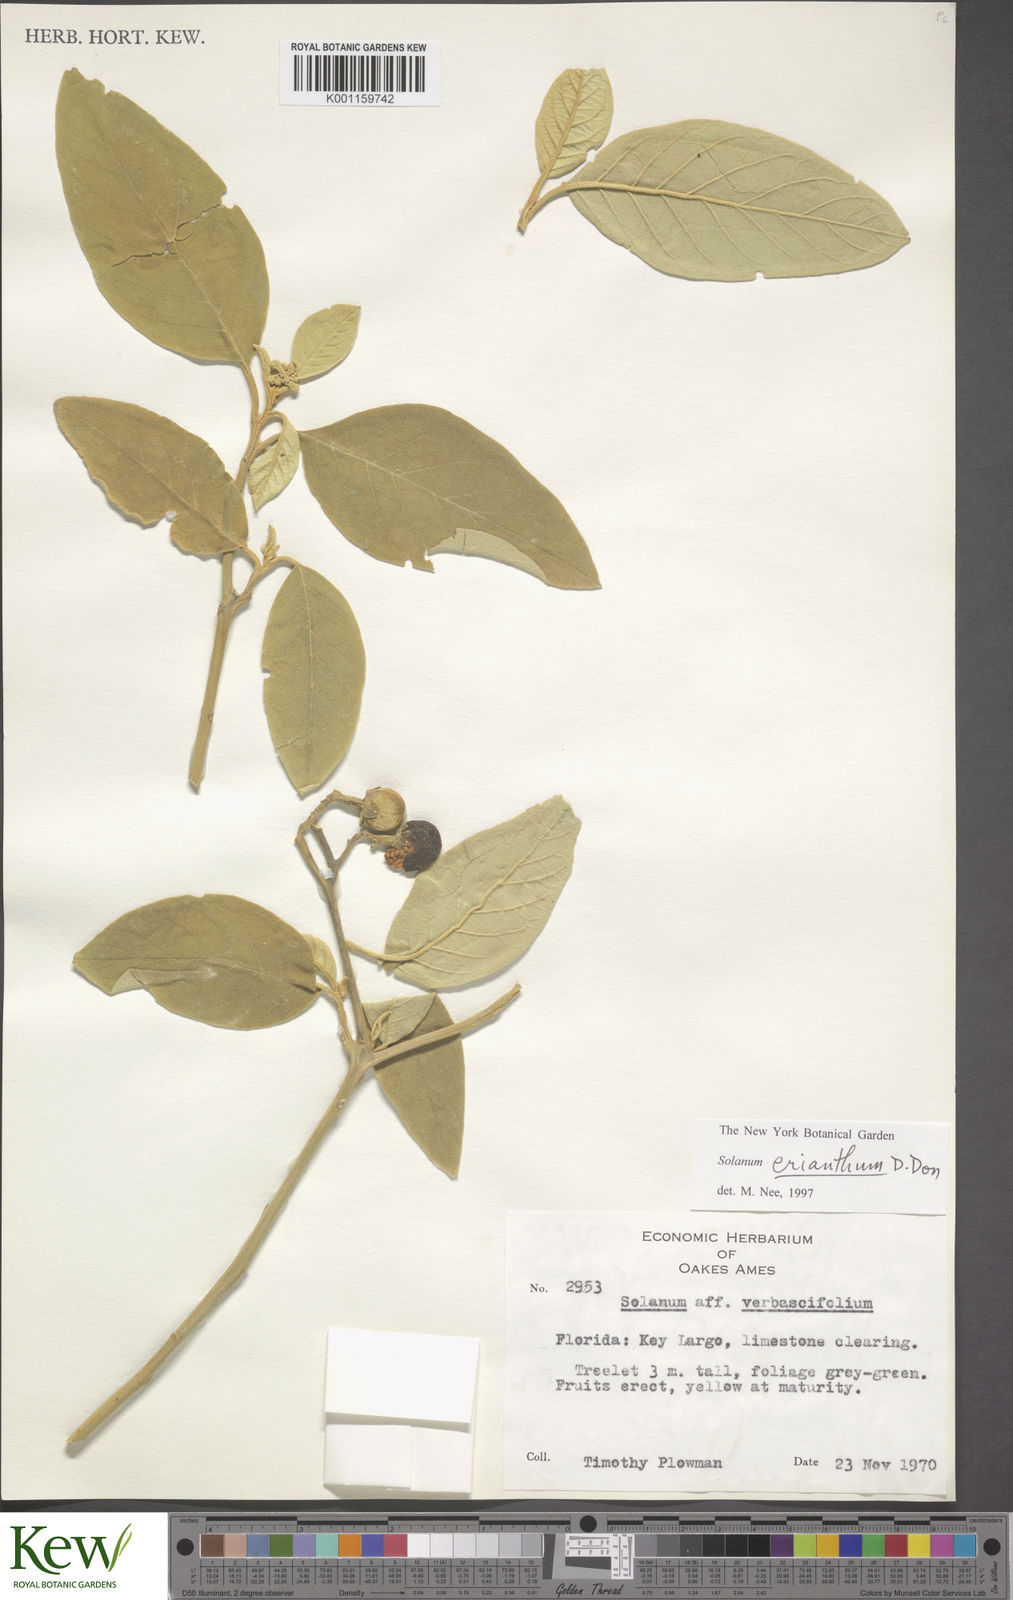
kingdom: Plantae
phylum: Tracheophyta
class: Magnoliopsida
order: Solanales
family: Solanaceae
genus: Solanum
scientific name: Solanum donianum
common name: Mullein nightshade
